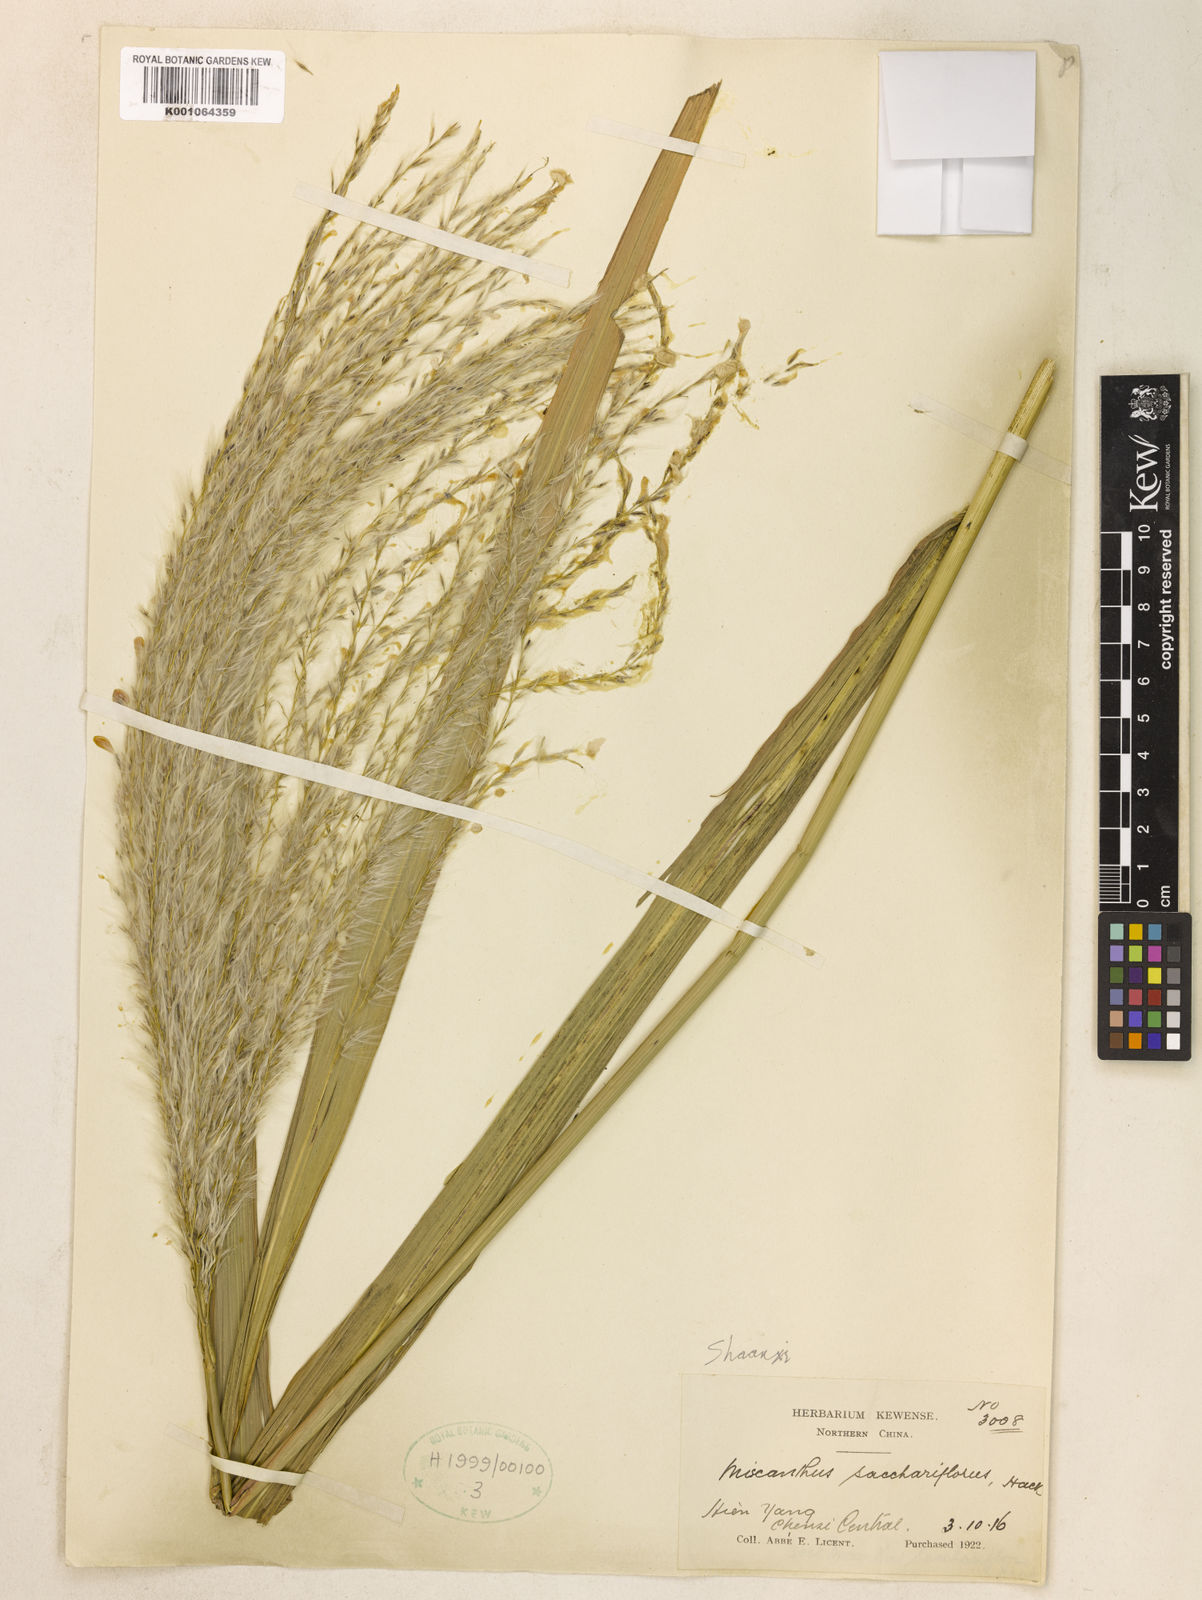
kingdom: Plantae
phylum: Tracheophyta
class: Liliopsida
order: Poales
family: Poaceae
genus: Miscanthus
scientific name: Miscanthus
